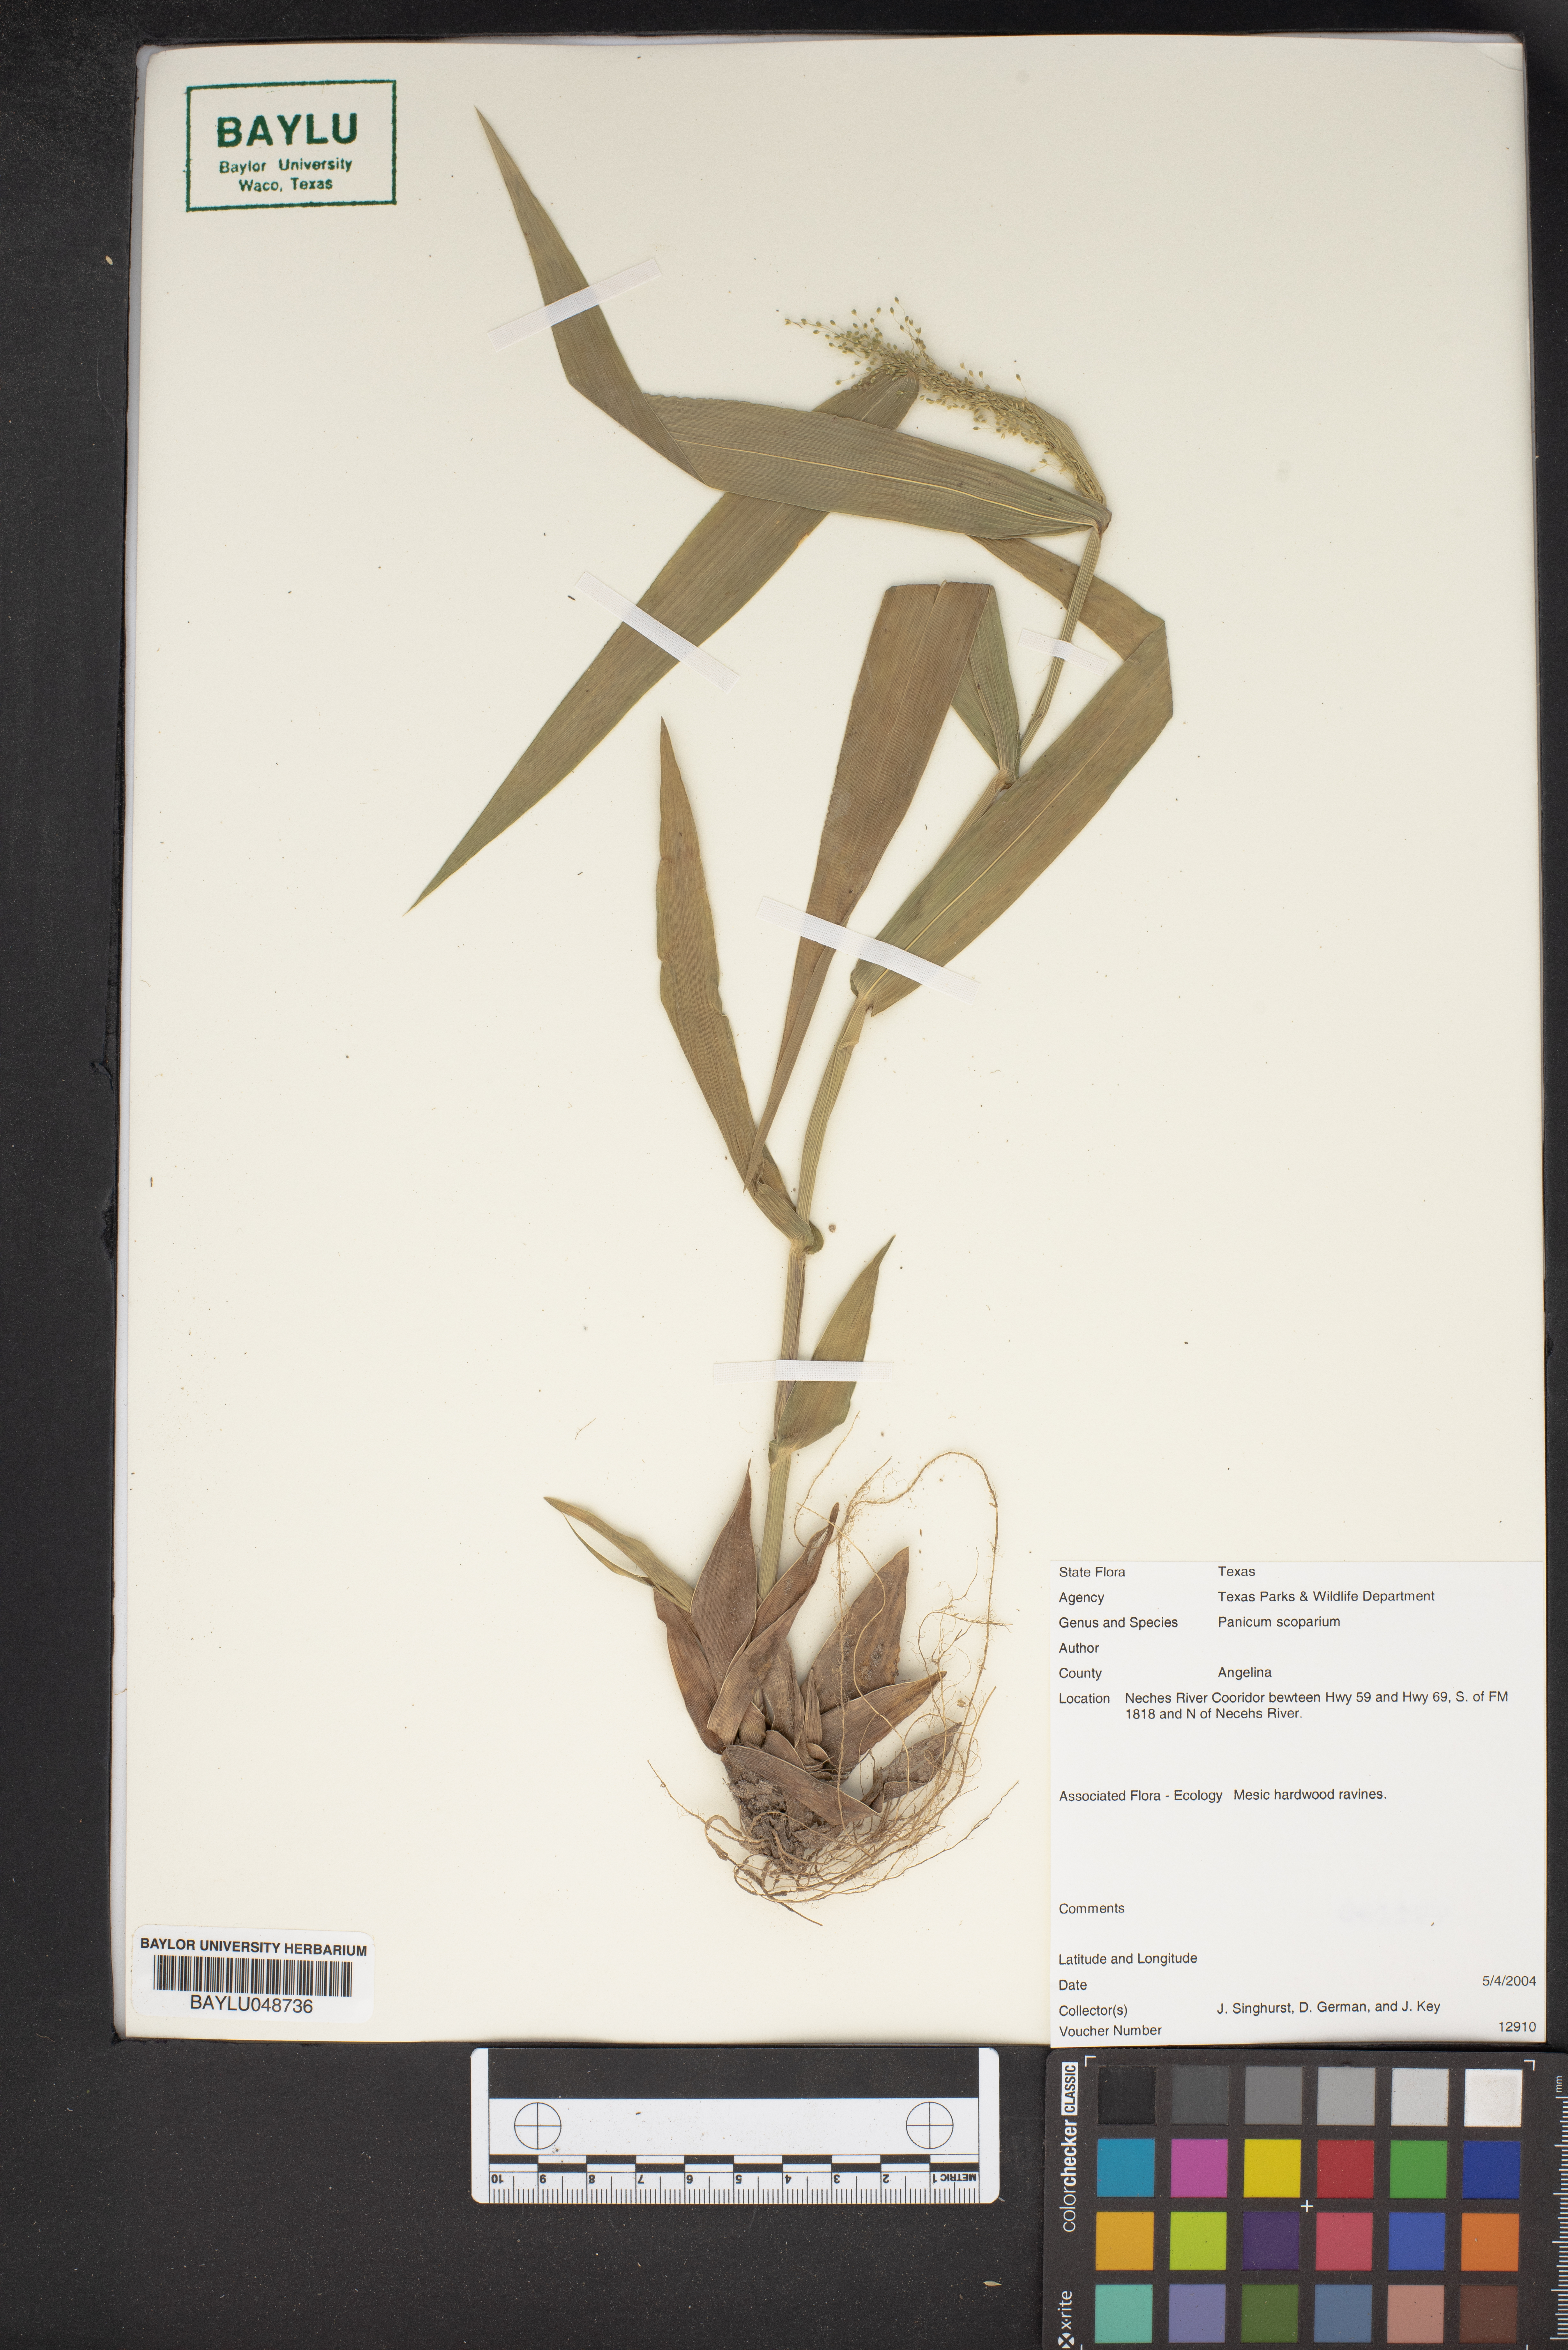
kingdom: Plantae
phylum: Tracheophyta
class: Liliopsida
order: Poales
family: Poaceae
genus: Dichanthelium
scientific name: Dichanthelium scribnerianum
